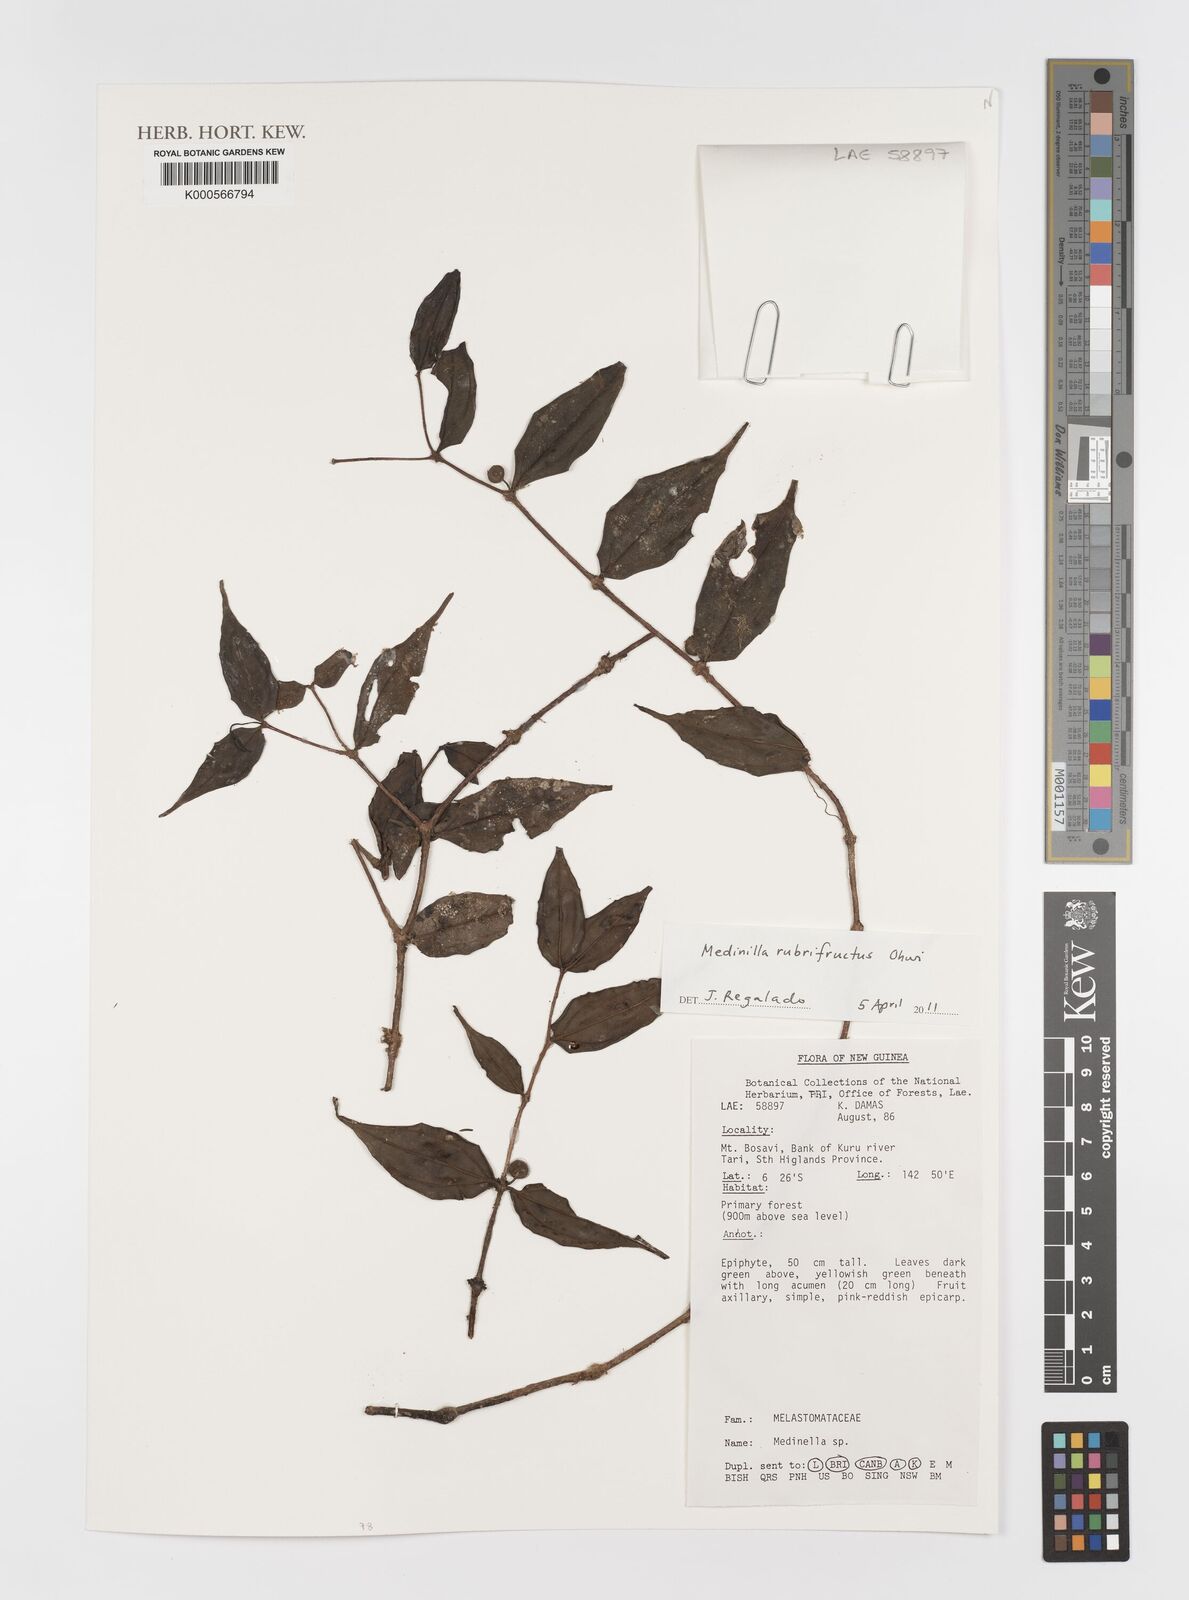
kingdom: Plantae
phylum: Tracheophyta
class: Magnoliopsida
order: Myrtales
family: Melastomataceae
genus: Medinilla
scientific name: Medinilla rubrifructus
